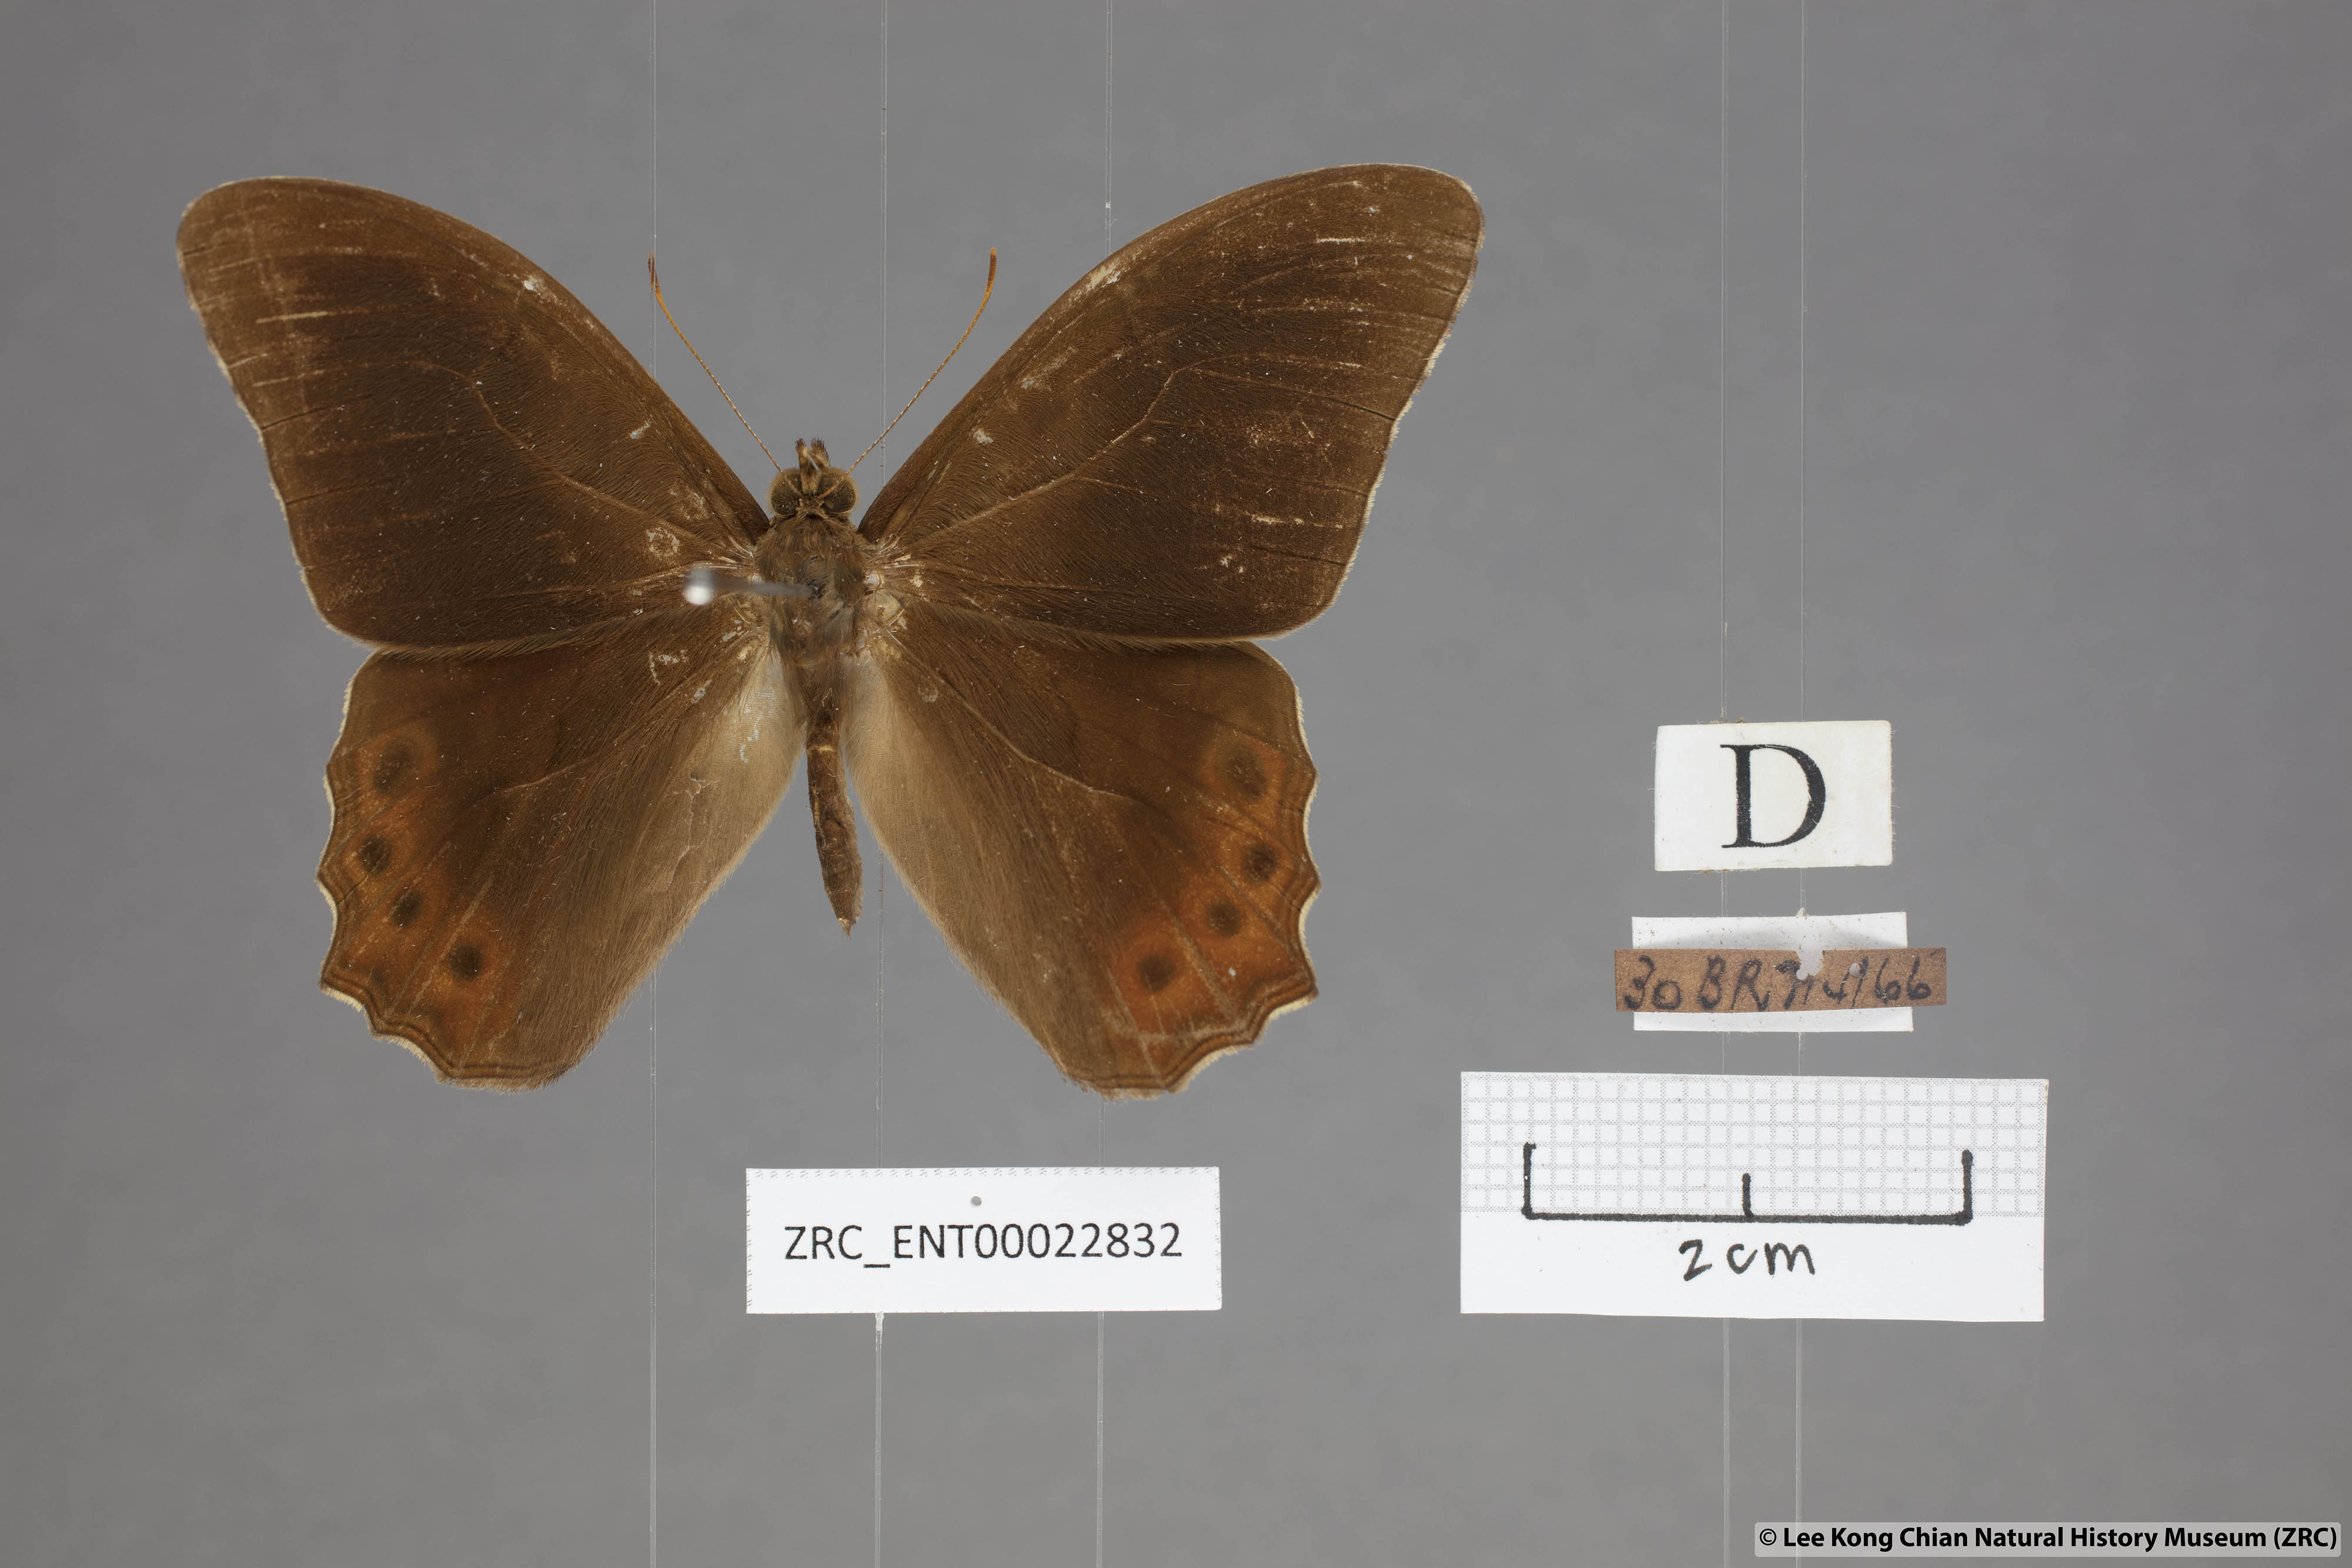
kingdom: Animalia
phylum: Arthropoda
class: Insecta
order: Lepidoptera
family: Nymphalidae
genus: Lethe
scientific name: Lethe mekara
